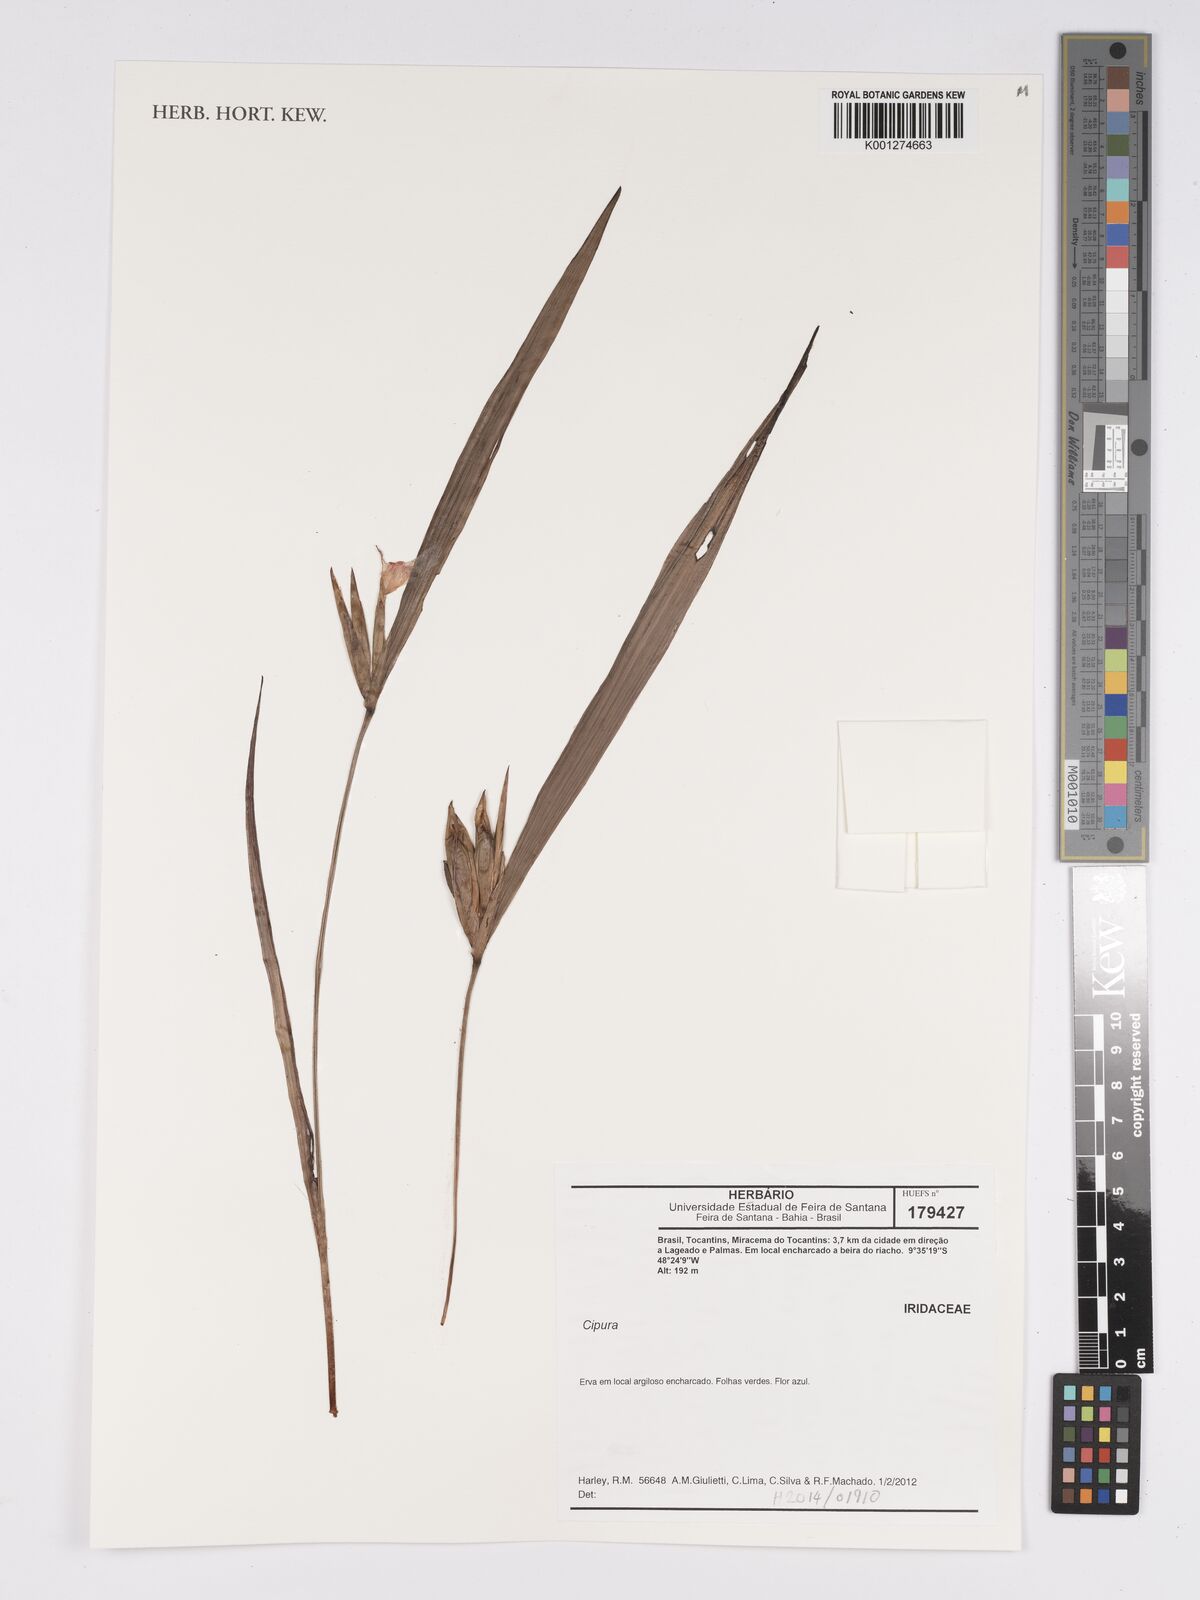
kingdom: Plantae
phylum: Tracheophyta
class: Liliopsida
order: Asparagales
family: Iridaceae
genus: Cipura
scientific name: Cipura
